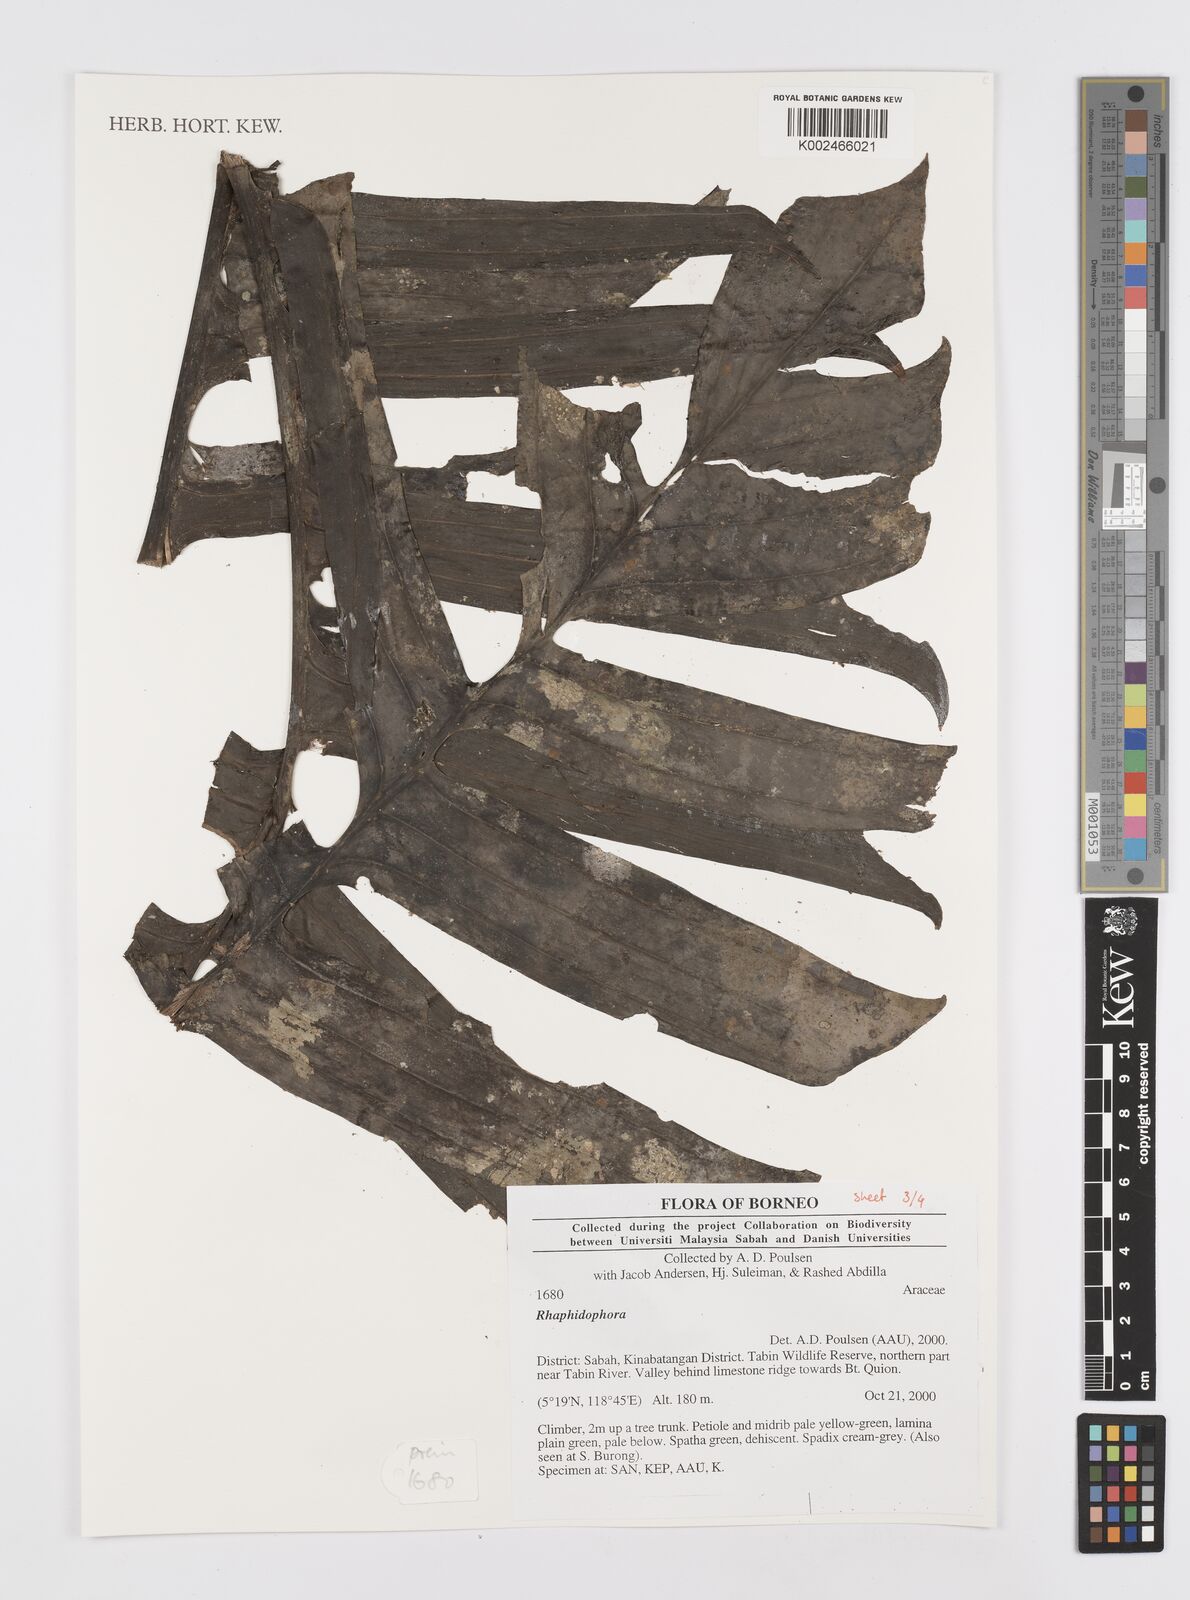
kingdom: Plantae
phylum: Tracheophyta
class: Liliopsida
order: Alismatales
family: Araceae
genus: Rhaphidophora
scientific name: Rhaphidophora
